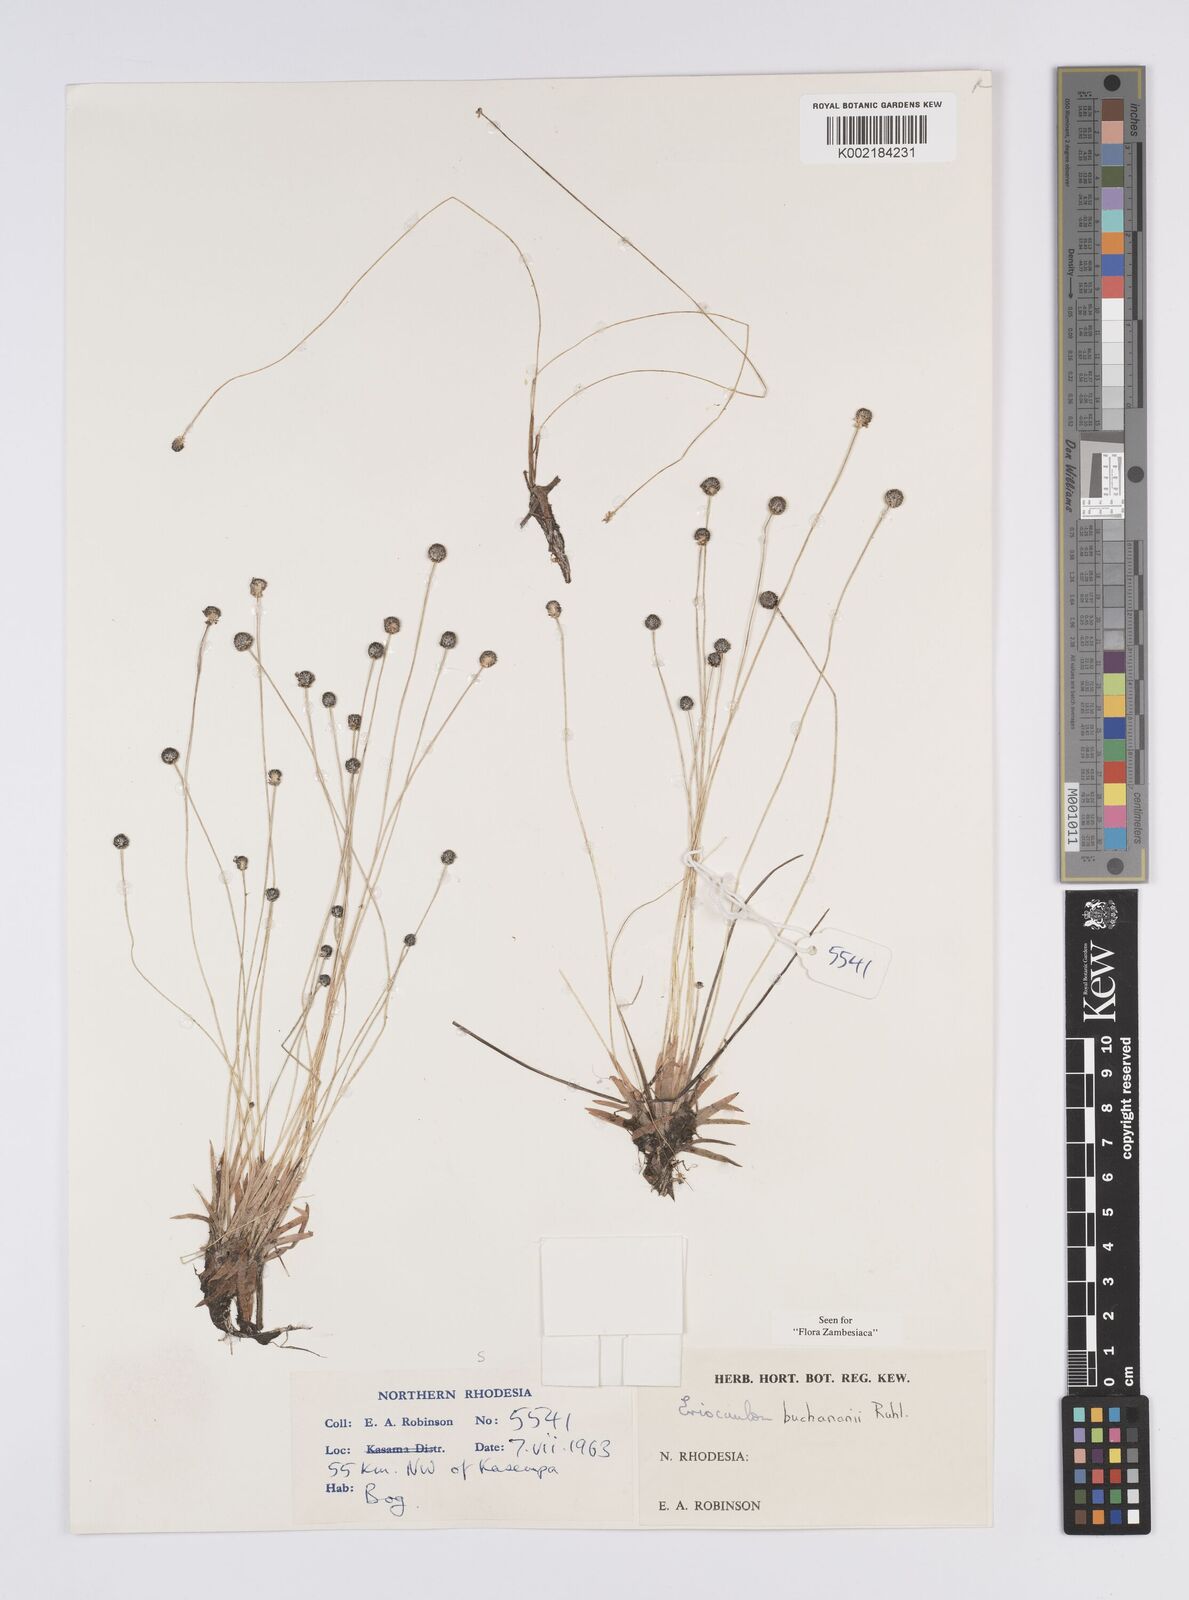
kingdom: Plantae
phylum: Tracheophyta
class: Liliopsida
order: Poales
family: Eriocaulaceae
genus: Eriocaulon
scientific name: Eriocaulon buchananii
